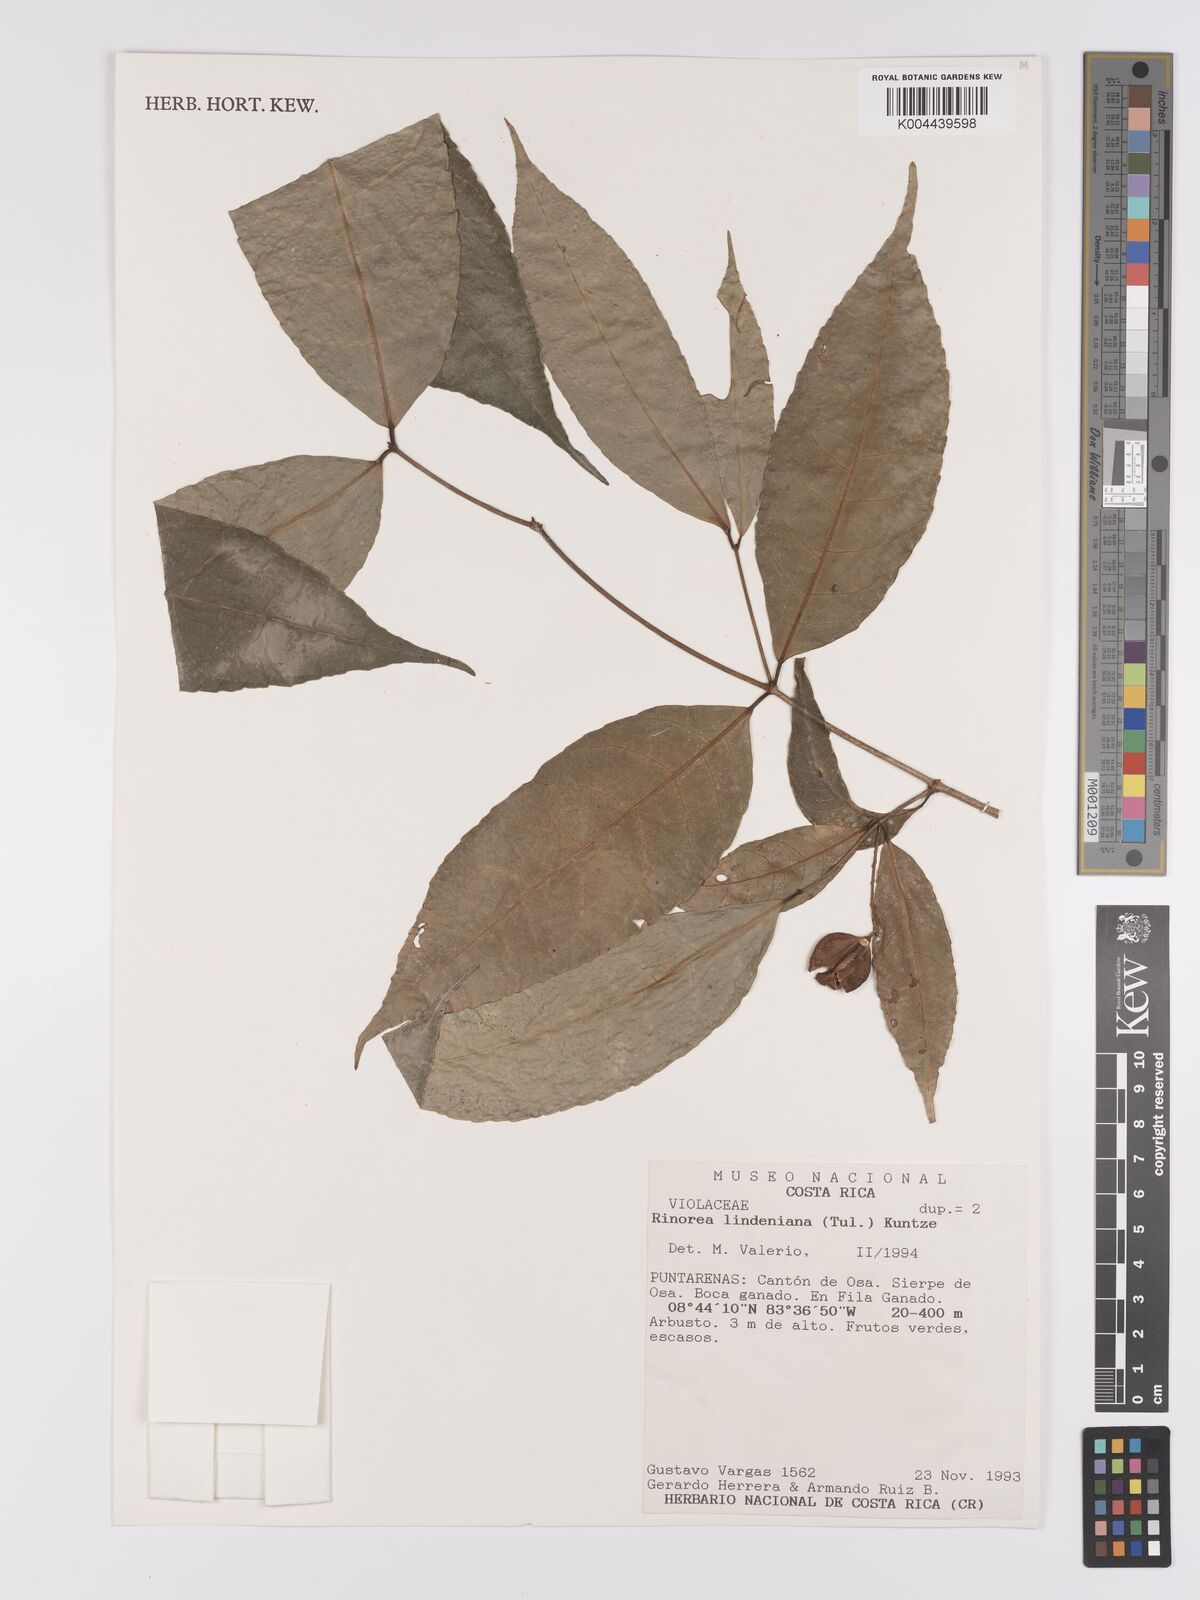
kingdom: Plantae
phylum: Tracheophyta
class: Magnoliopsida
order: Malpighiales
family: Violaceae
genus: Rinorea
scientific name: Rinorea lindeniana
